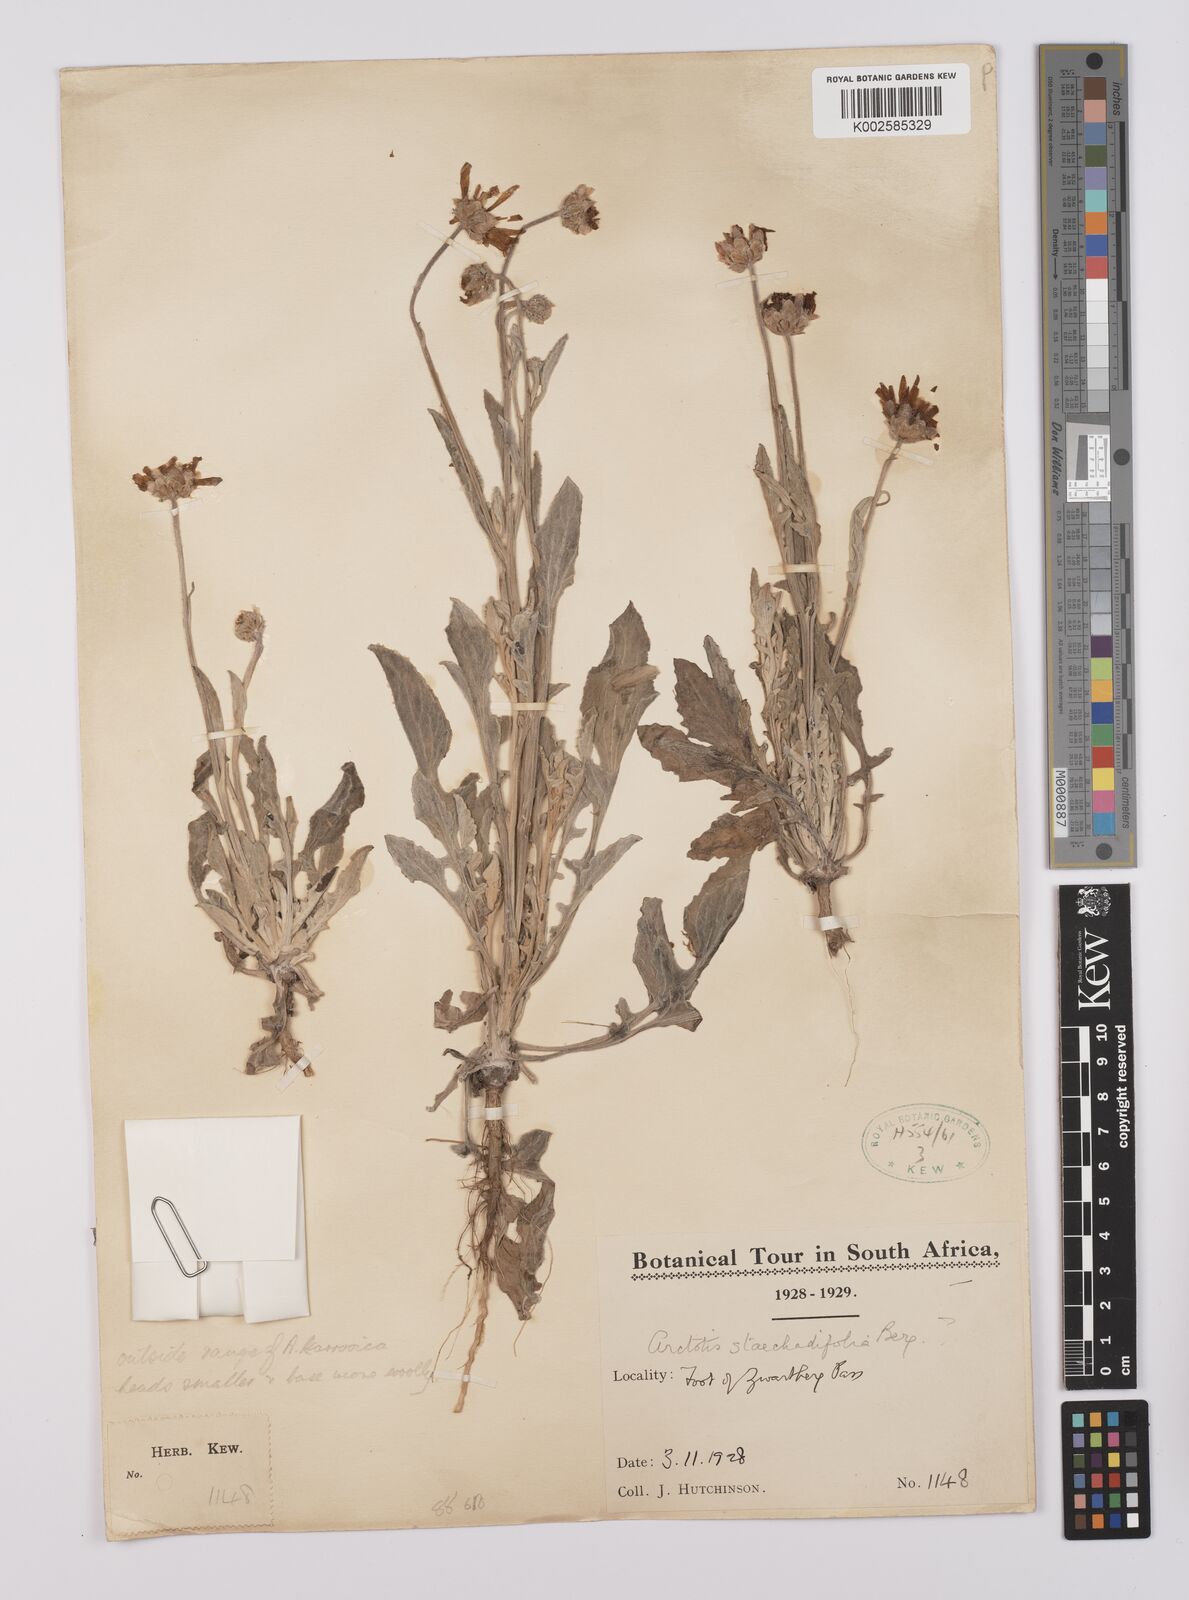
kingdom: Plantae
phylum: Tracheophyta
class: Magnoliopsida
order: Asterales
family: Asteraceae
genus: Arctotis
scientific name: Arctotis
